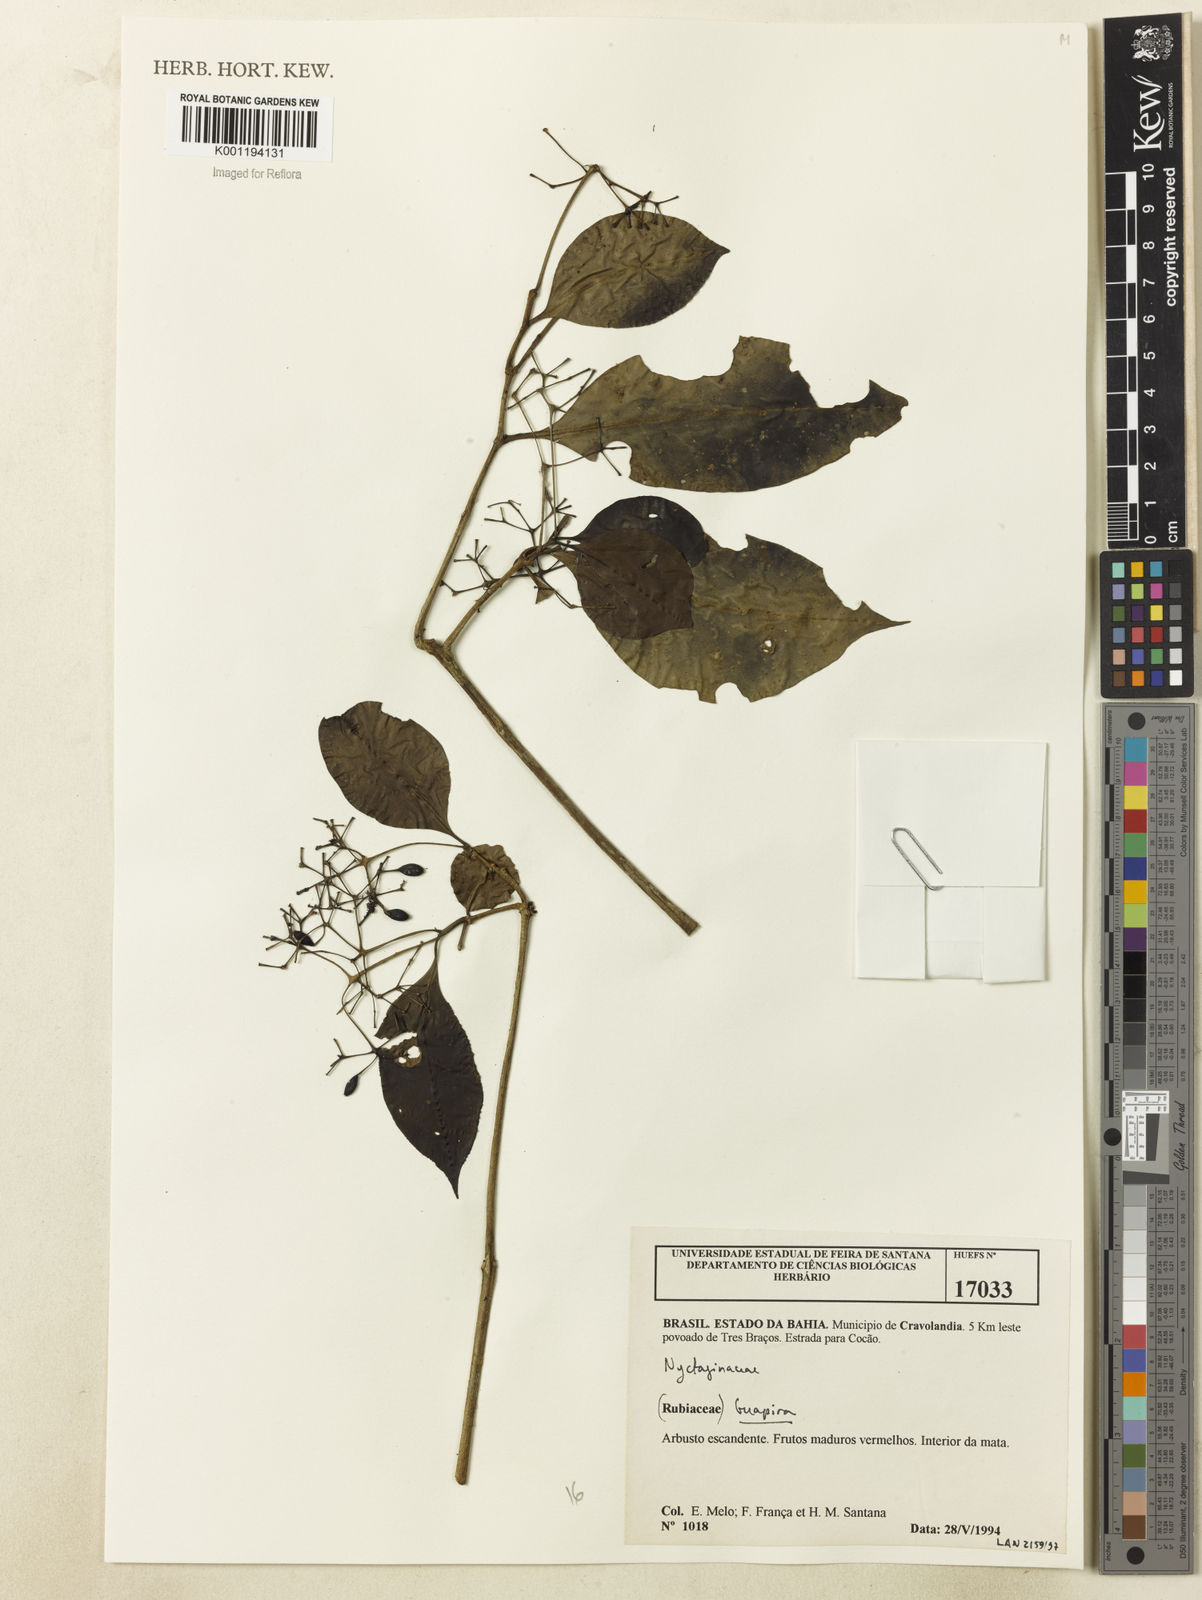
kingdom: Plantae
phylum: Tracheophyta
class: Magnoliopsida
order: Caryophyllales
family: Nyctaginaceae
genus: Guapira
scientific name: Guapira
